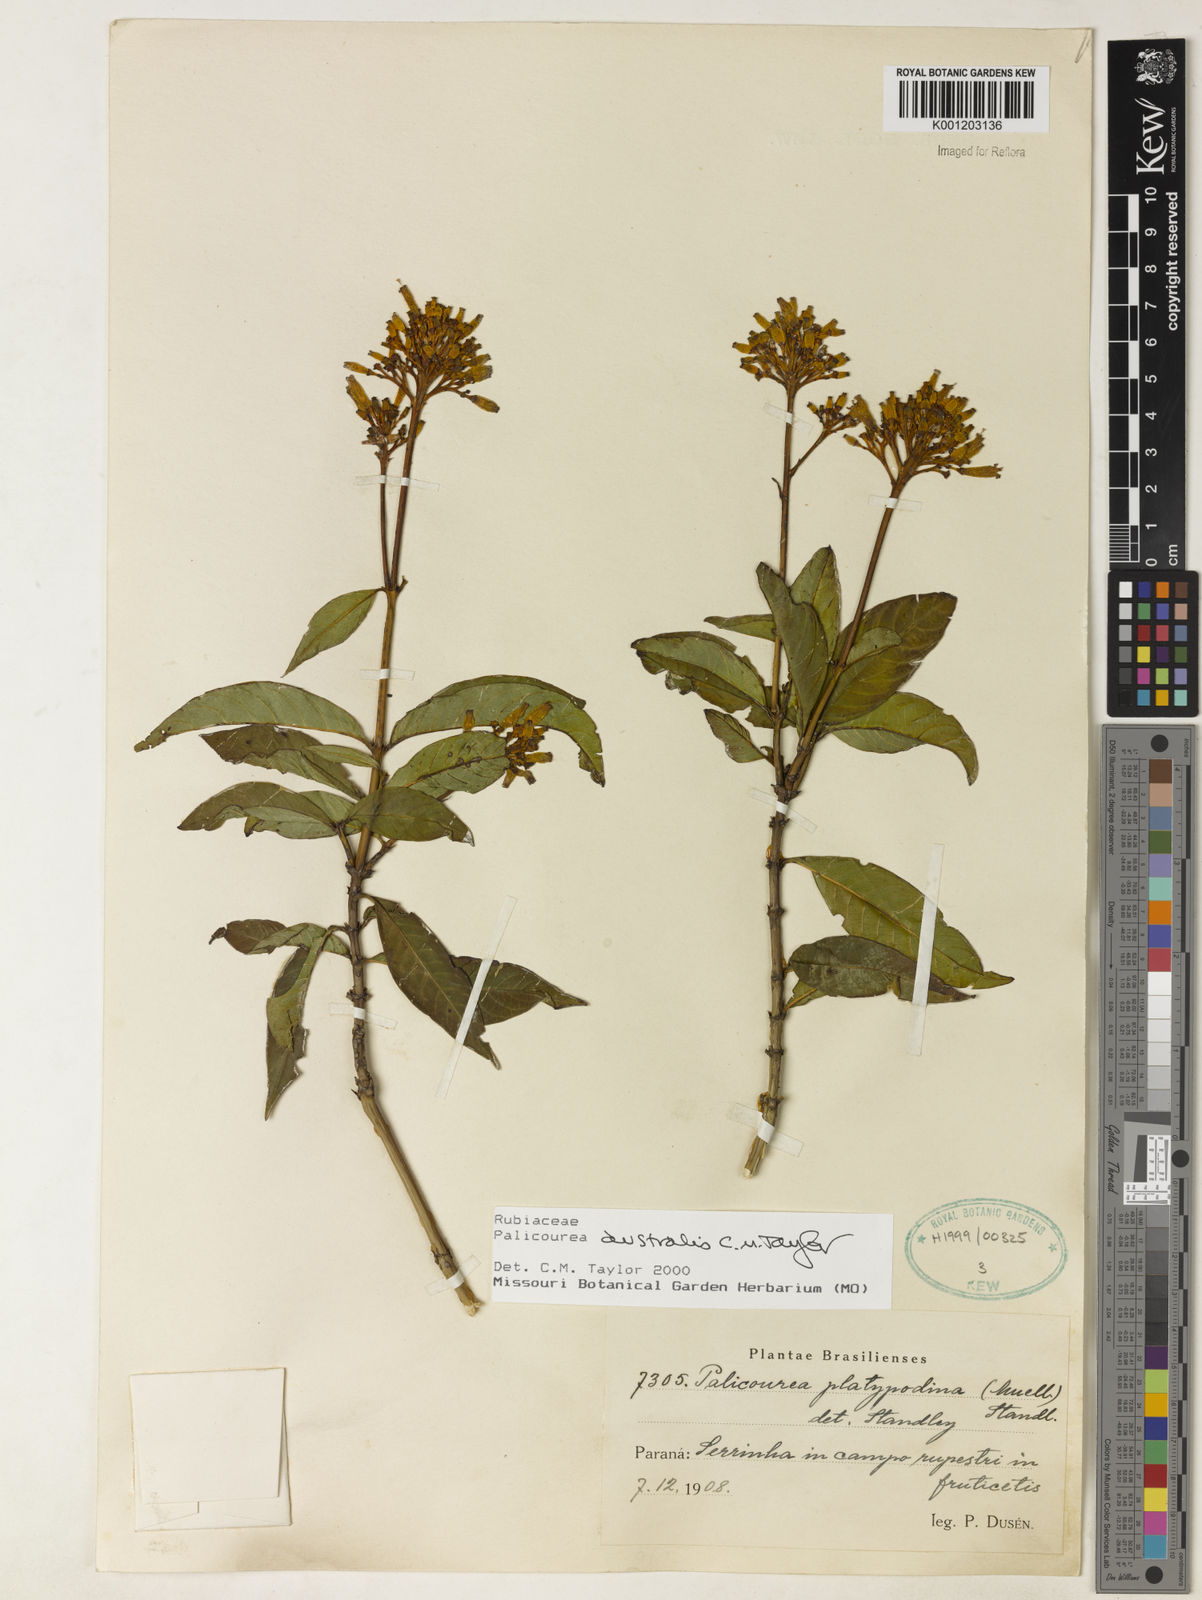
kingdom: Plantae
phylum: Tracheophyta
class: Magnoliopsida
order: Gentianales
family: Rubiaceae
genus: Palicourea
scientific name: Palicourea australis
